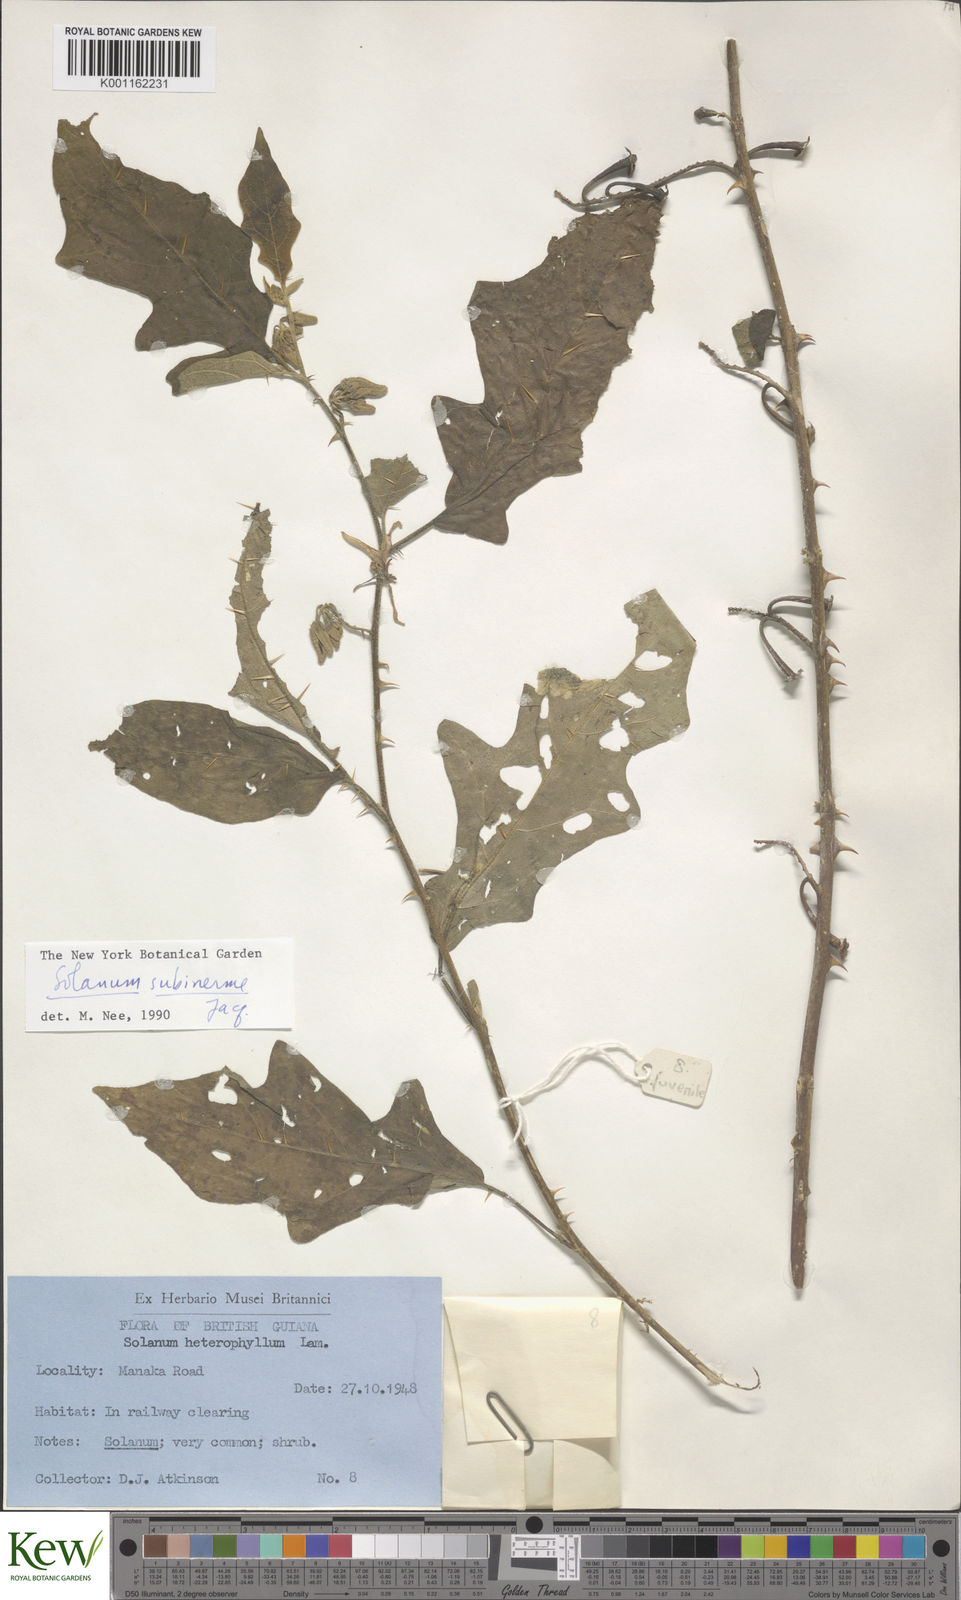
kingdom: Plantae
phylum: Tracheophyta
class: Magnoliopsida
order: Solanales
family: Solanaceae
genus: Solanum
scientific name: Solanum subinerme
